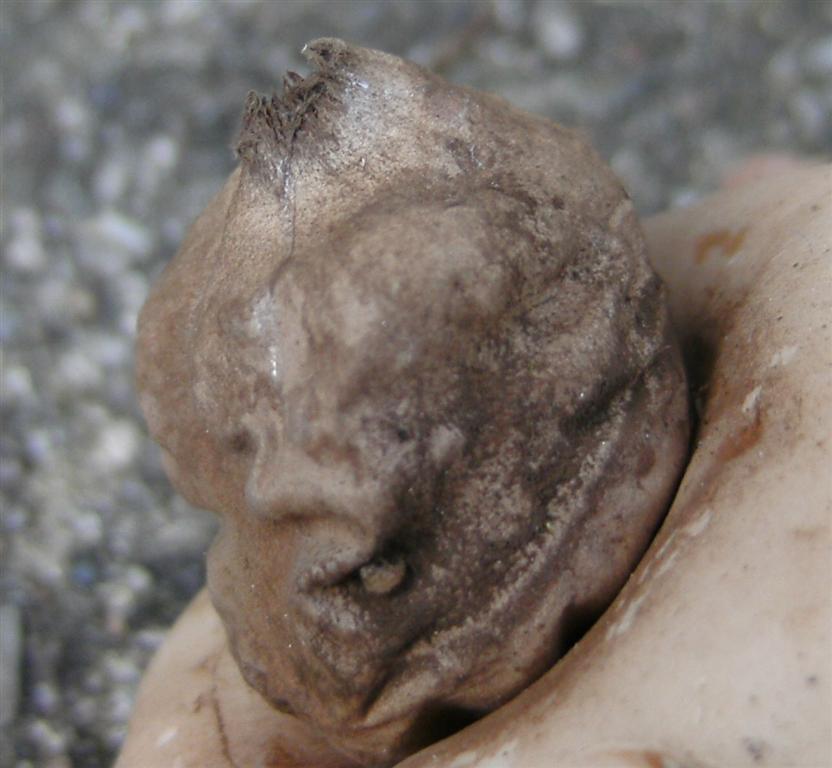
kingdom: Fungi
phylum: Basidiomycota
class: Agaricomycetes
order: Geastrales
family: Geastraceae
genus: Geastrum
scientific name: Geastrum fimbriatum
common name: frynset stjernebold
